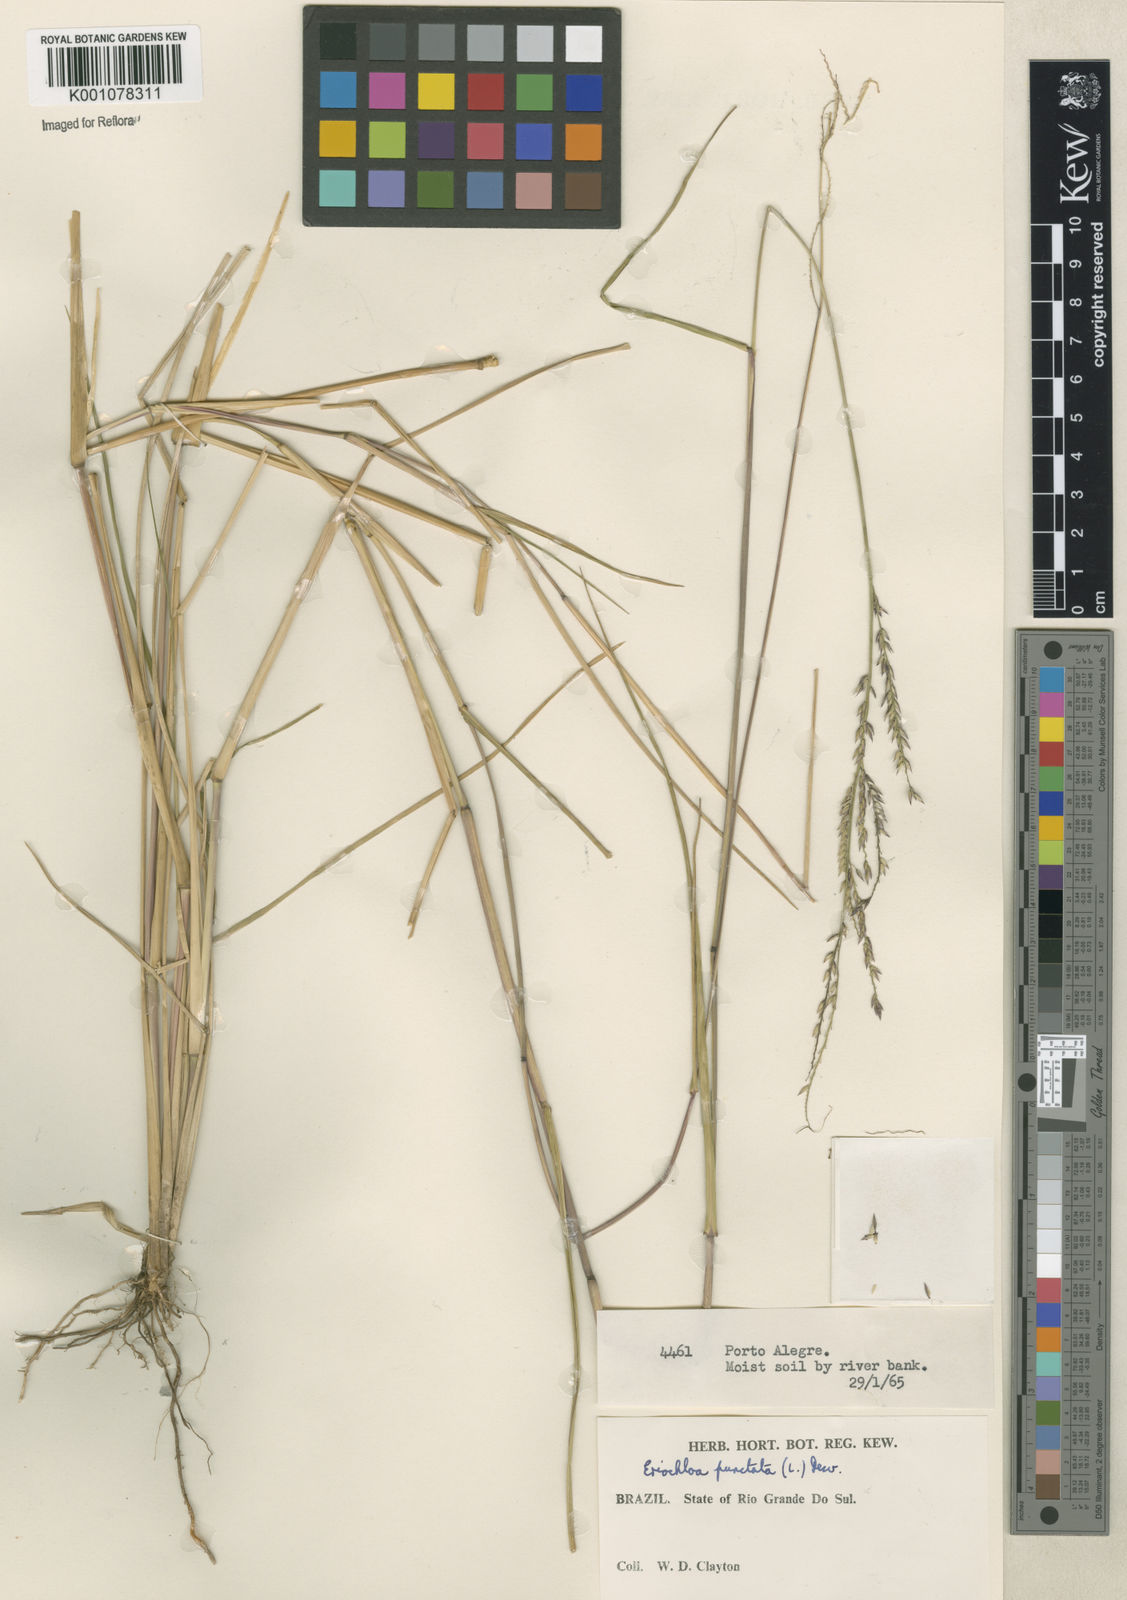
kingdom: Plantae
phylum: Tracheophyta
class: Liliopsida
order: Poales
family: Poaceae
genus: Eriochloa
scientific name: Eriochloa punctata
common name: Louisiana cupgrass
